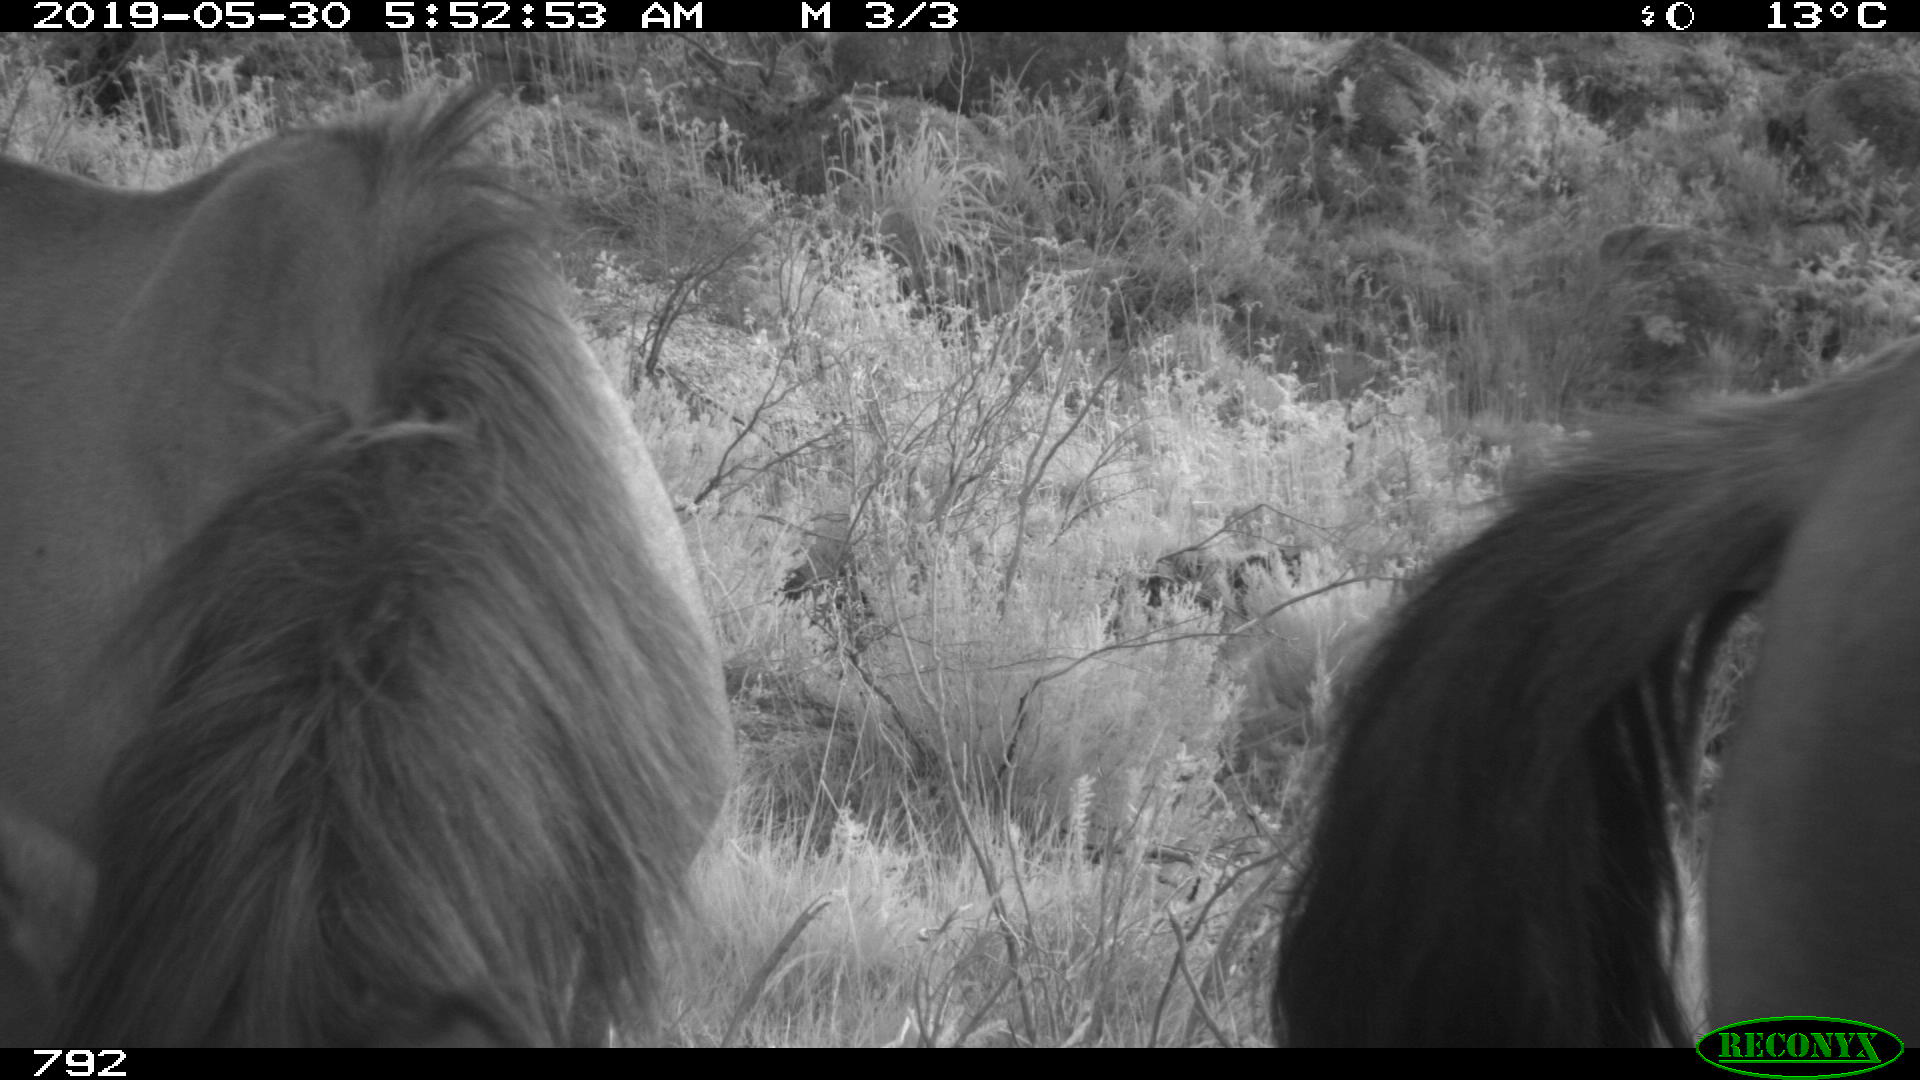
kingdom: Animalia
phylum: Chordata
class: Mammalia
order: Perissodactyla
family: Equidae
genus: Equus
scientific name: Equus caballus
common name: Horse
